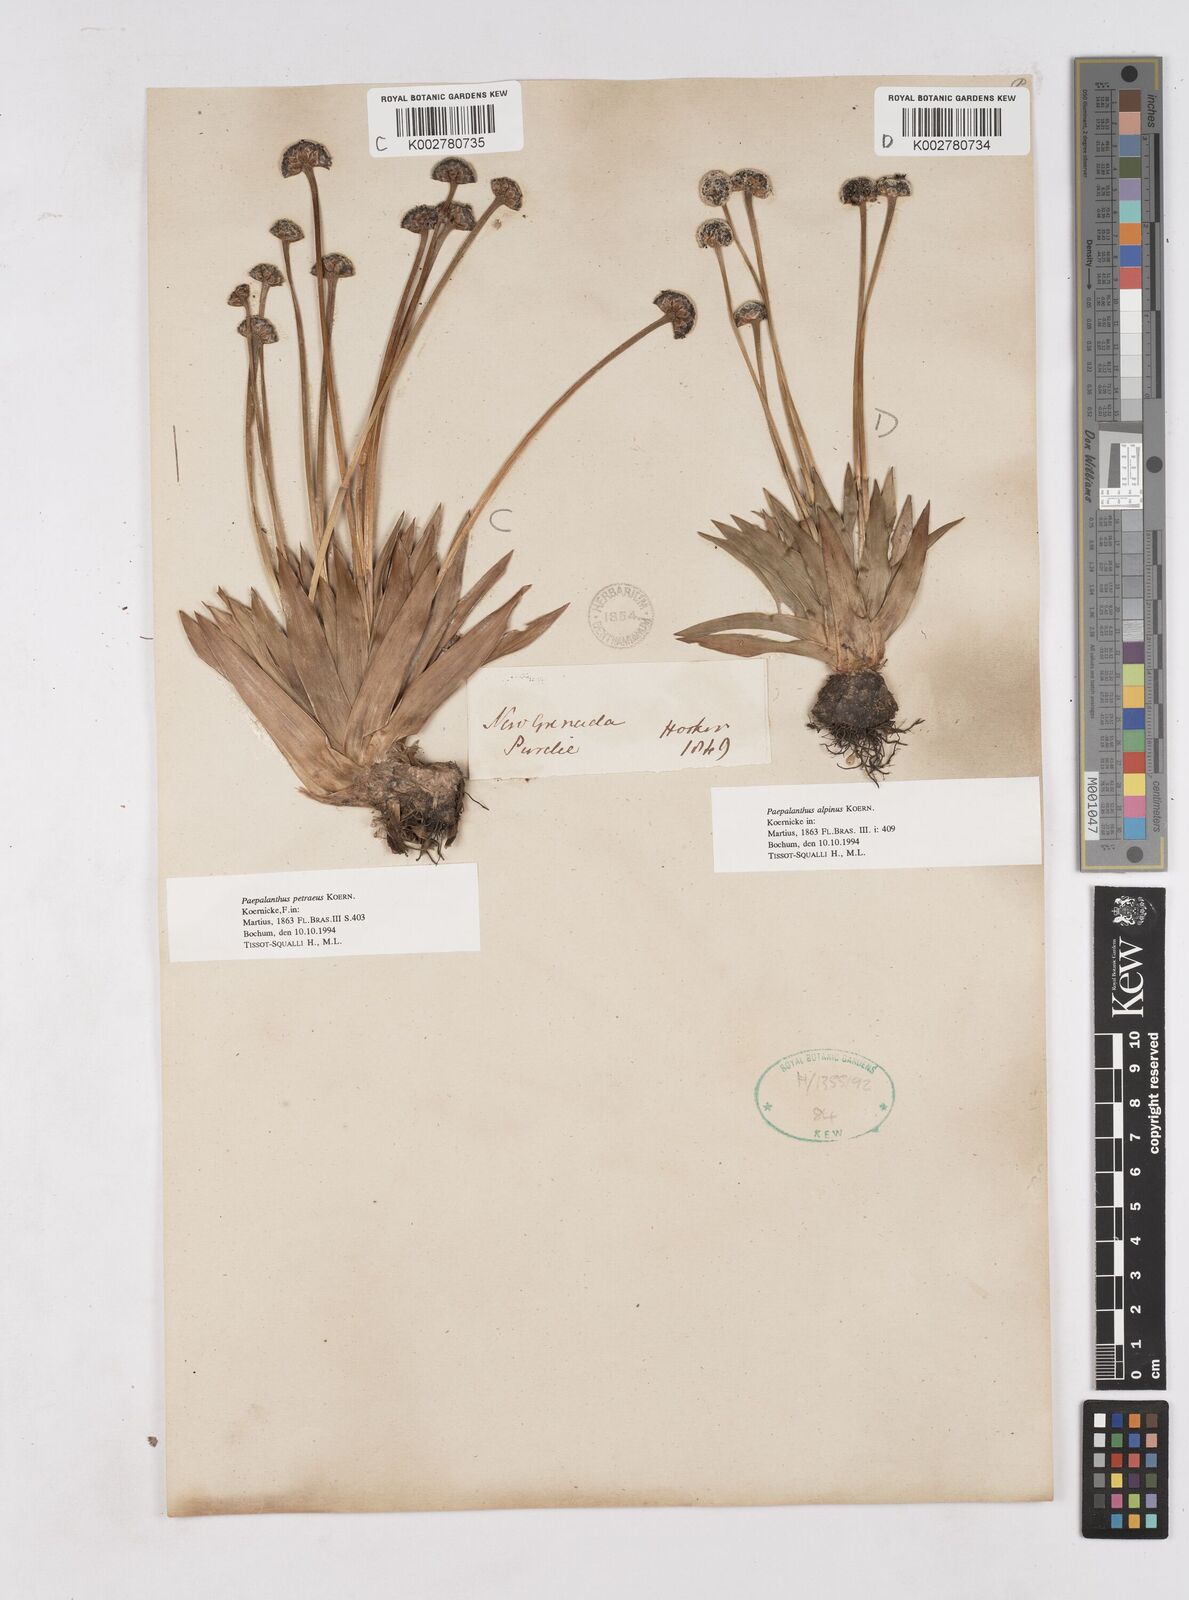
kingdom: Plantae
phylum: Tracheophyta
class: Liliopsida
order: Poales
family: Eriocaulaceae
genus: Paepalanthus
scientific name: Paepalanthus petraeus
